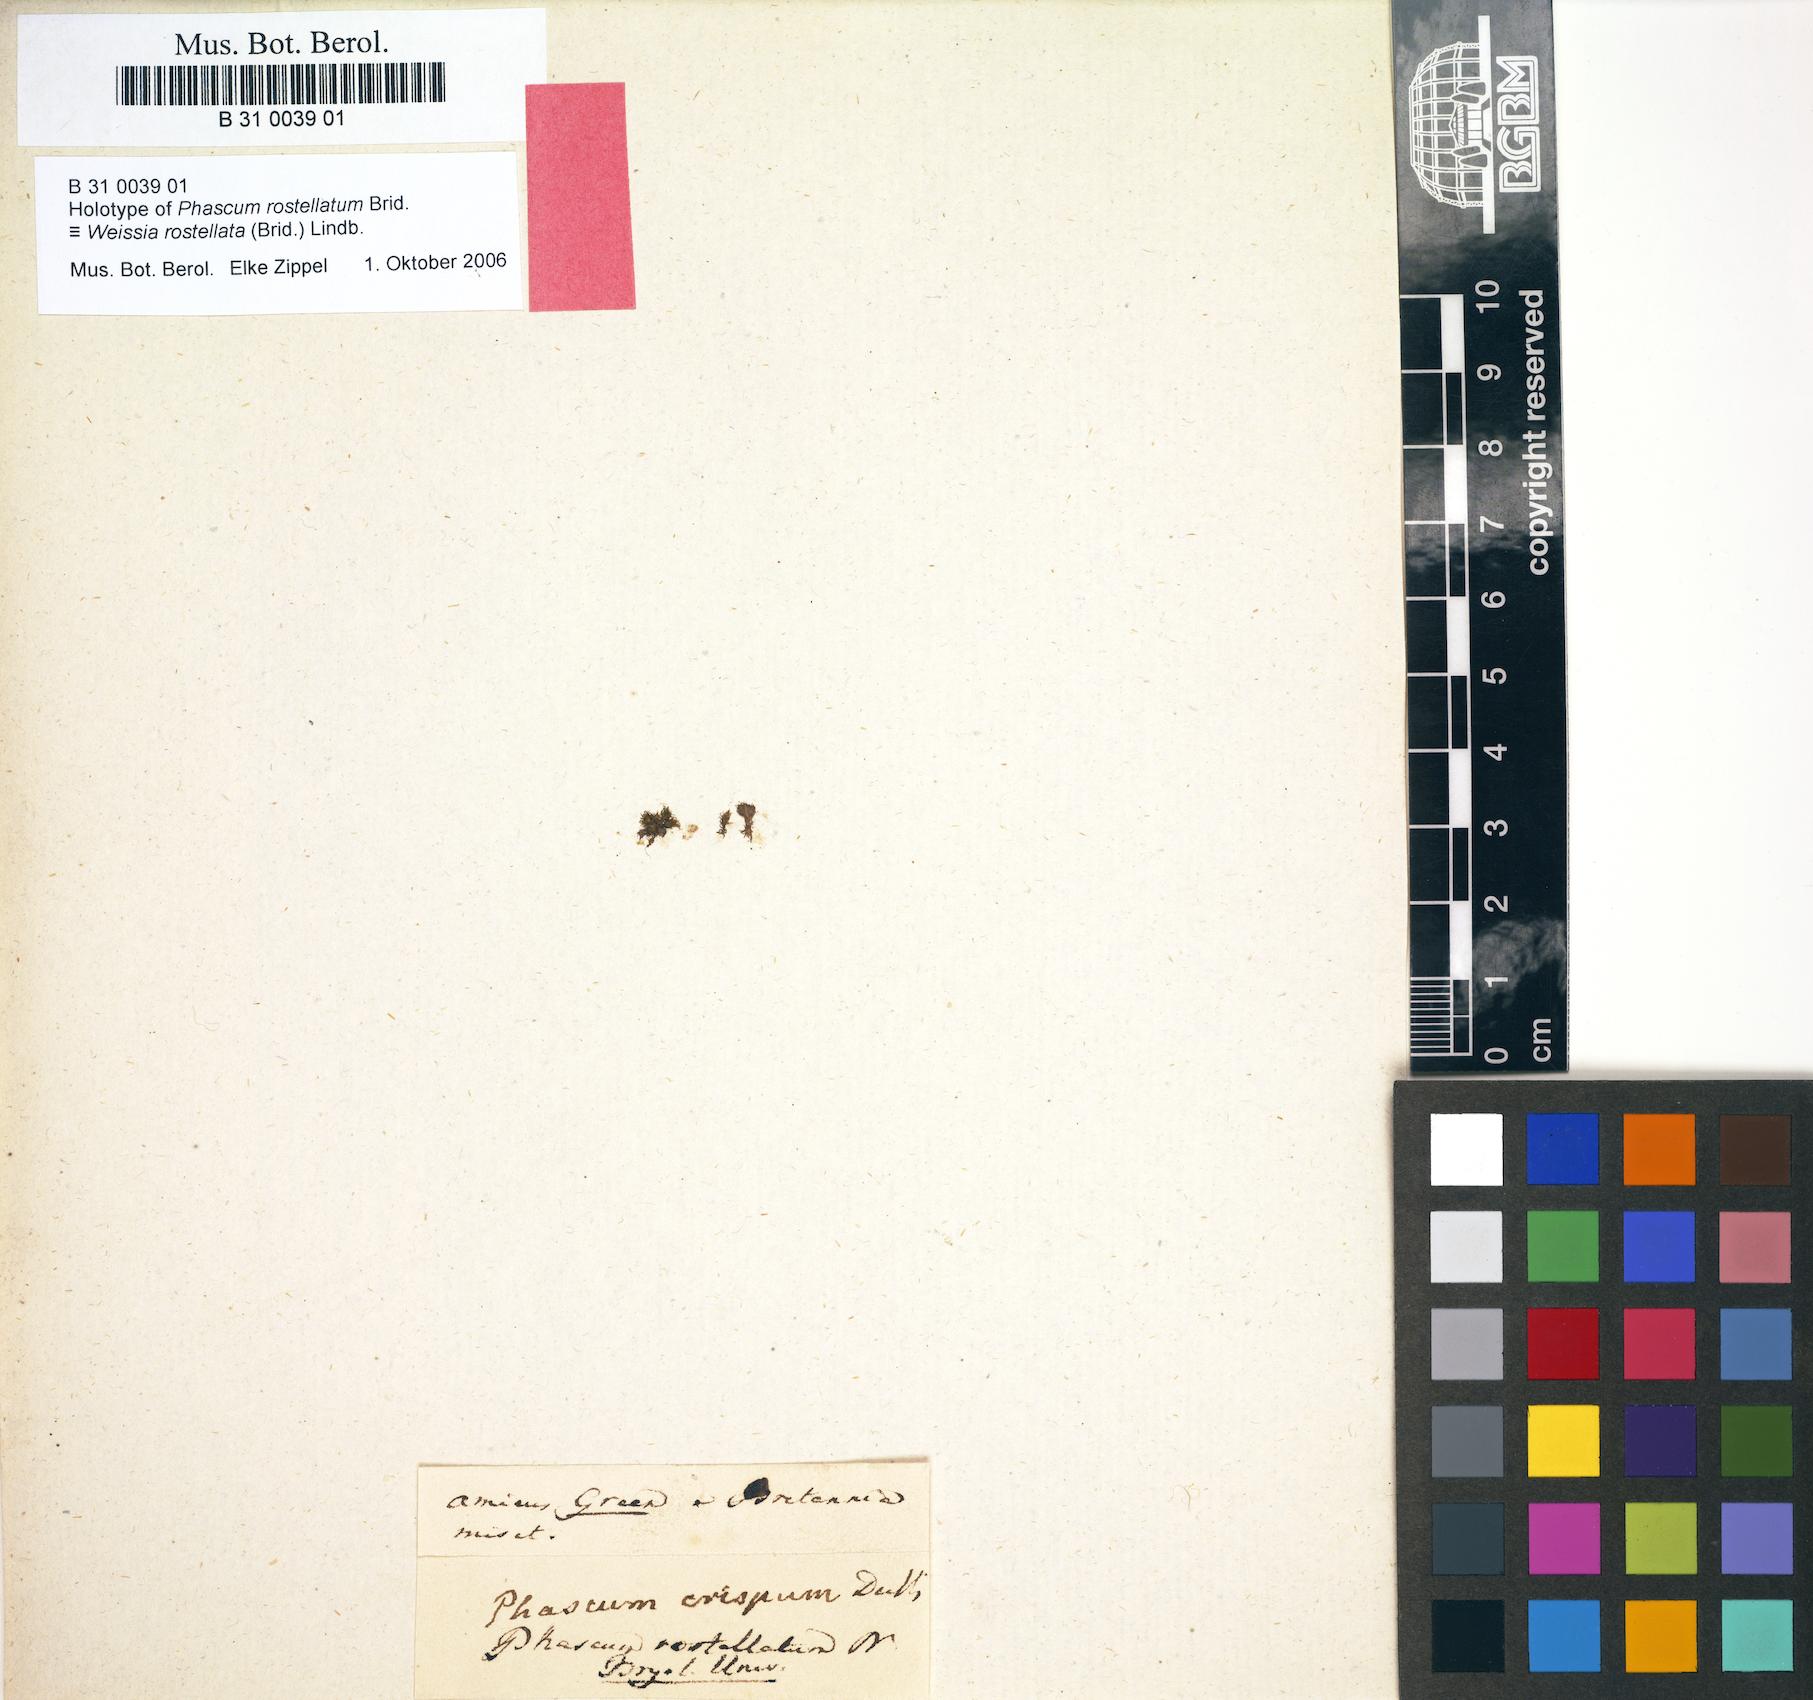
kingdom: Plantae
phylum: Bryophyta
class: Bryopsida
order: Pottiales
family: Pottiaceae
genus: Weissia
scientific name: Weissia rostellata
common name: Beaked beardless-moss
